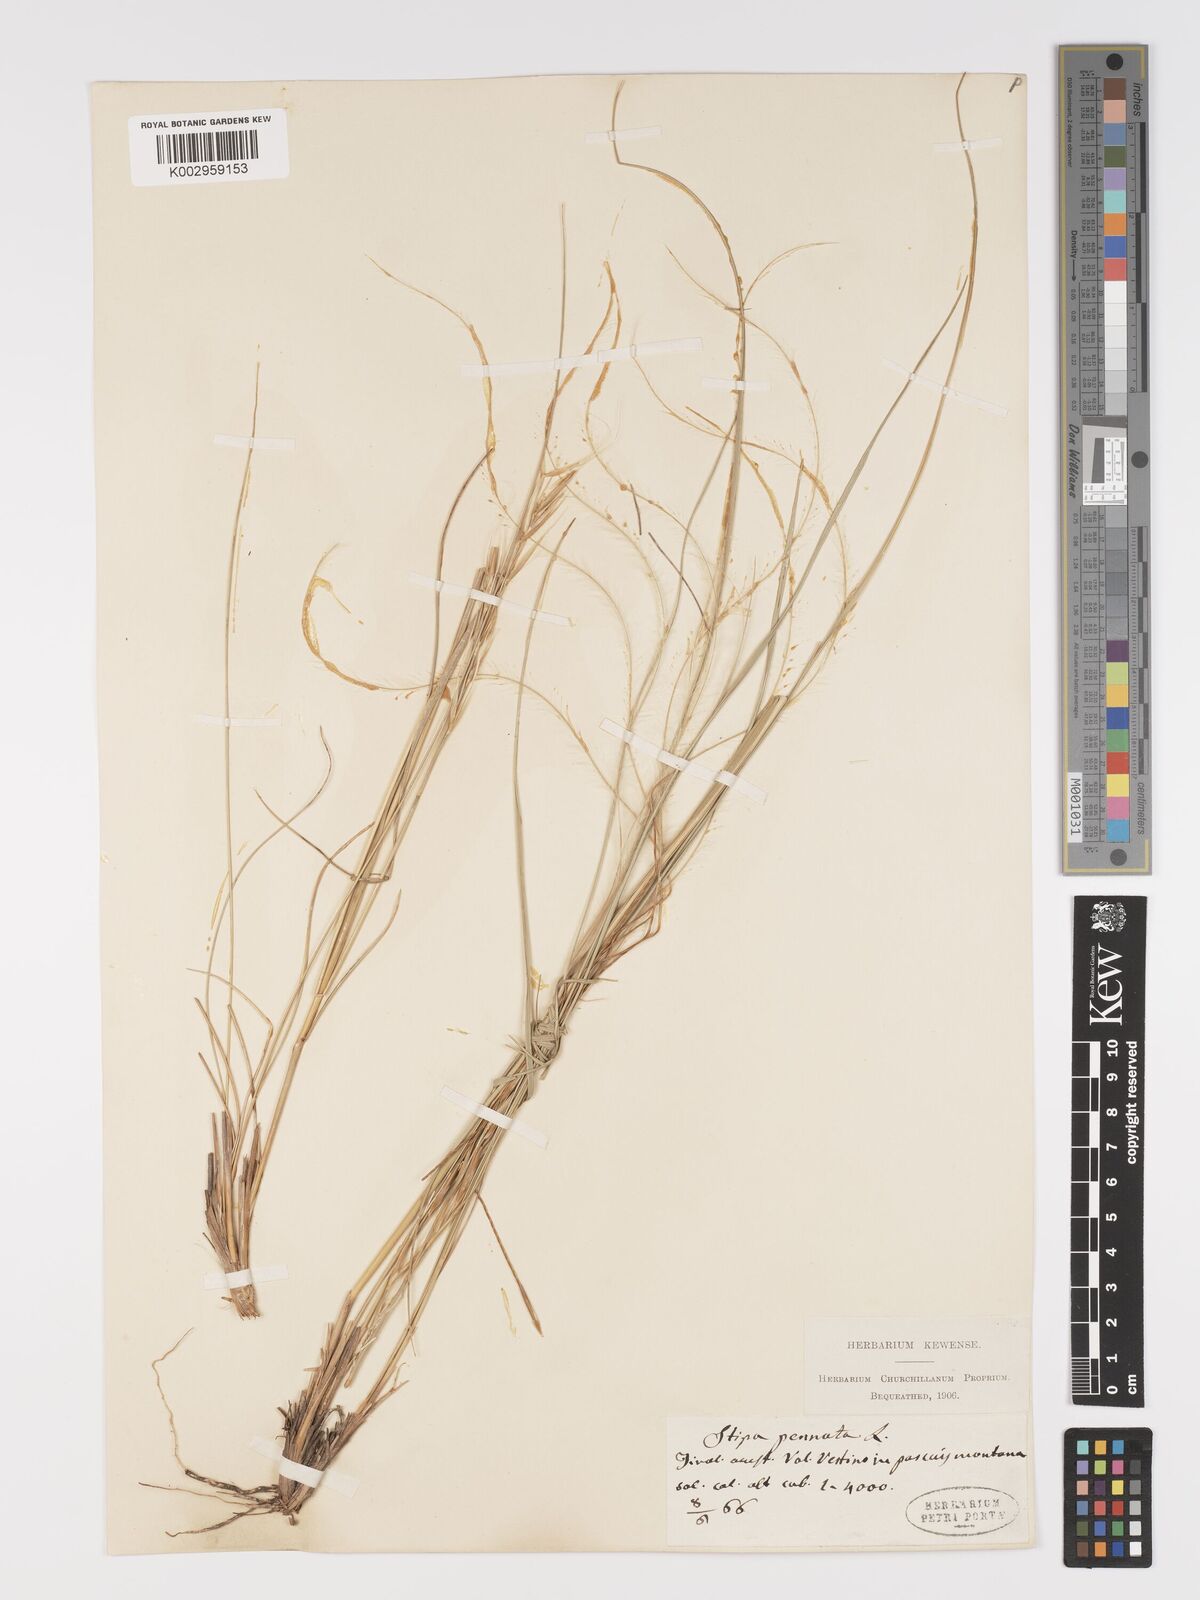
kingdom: Plantae
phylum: Tracheophyta
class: Liliopsida
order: Poales
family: Poaceae
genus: Stipa
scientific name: Stipa pennata
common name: European feather grass
